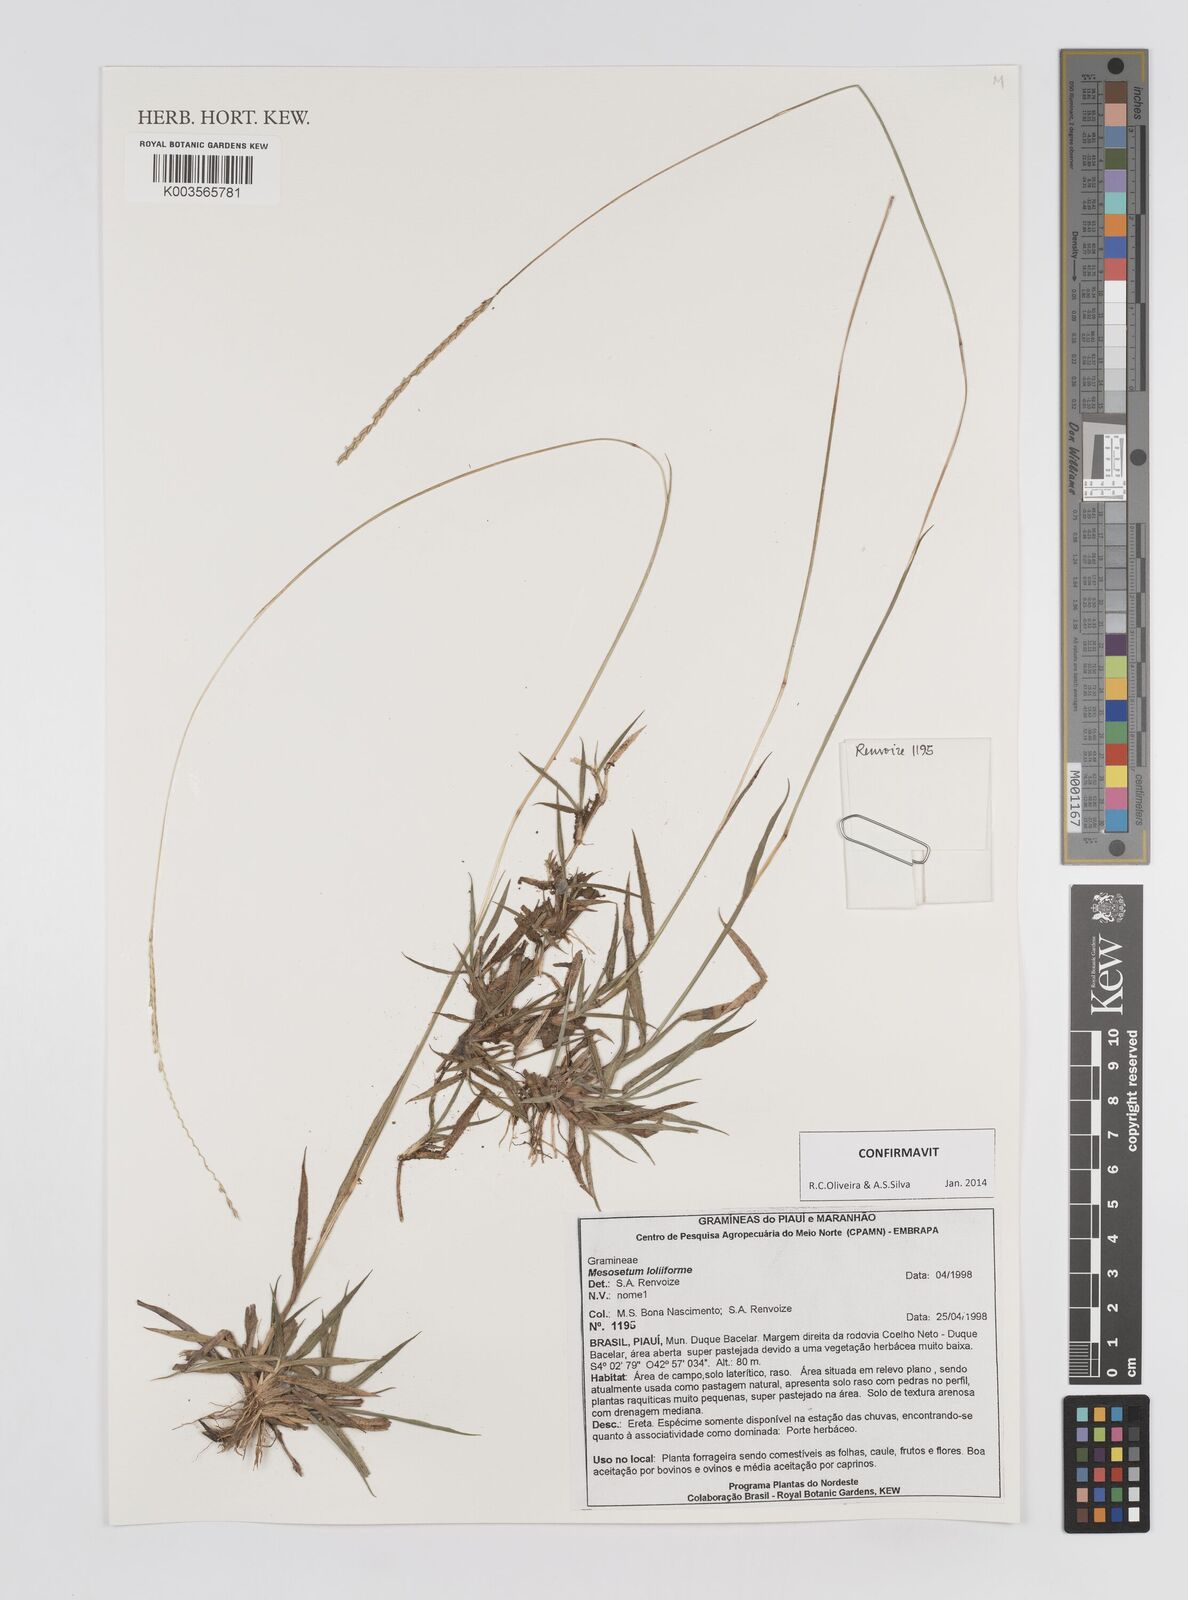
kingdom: Plantae
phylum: Tracheophyta
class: Liliopsida
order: Poales
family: Poaceae
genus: Mesosetum
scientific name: Mesosetum loliiforme
